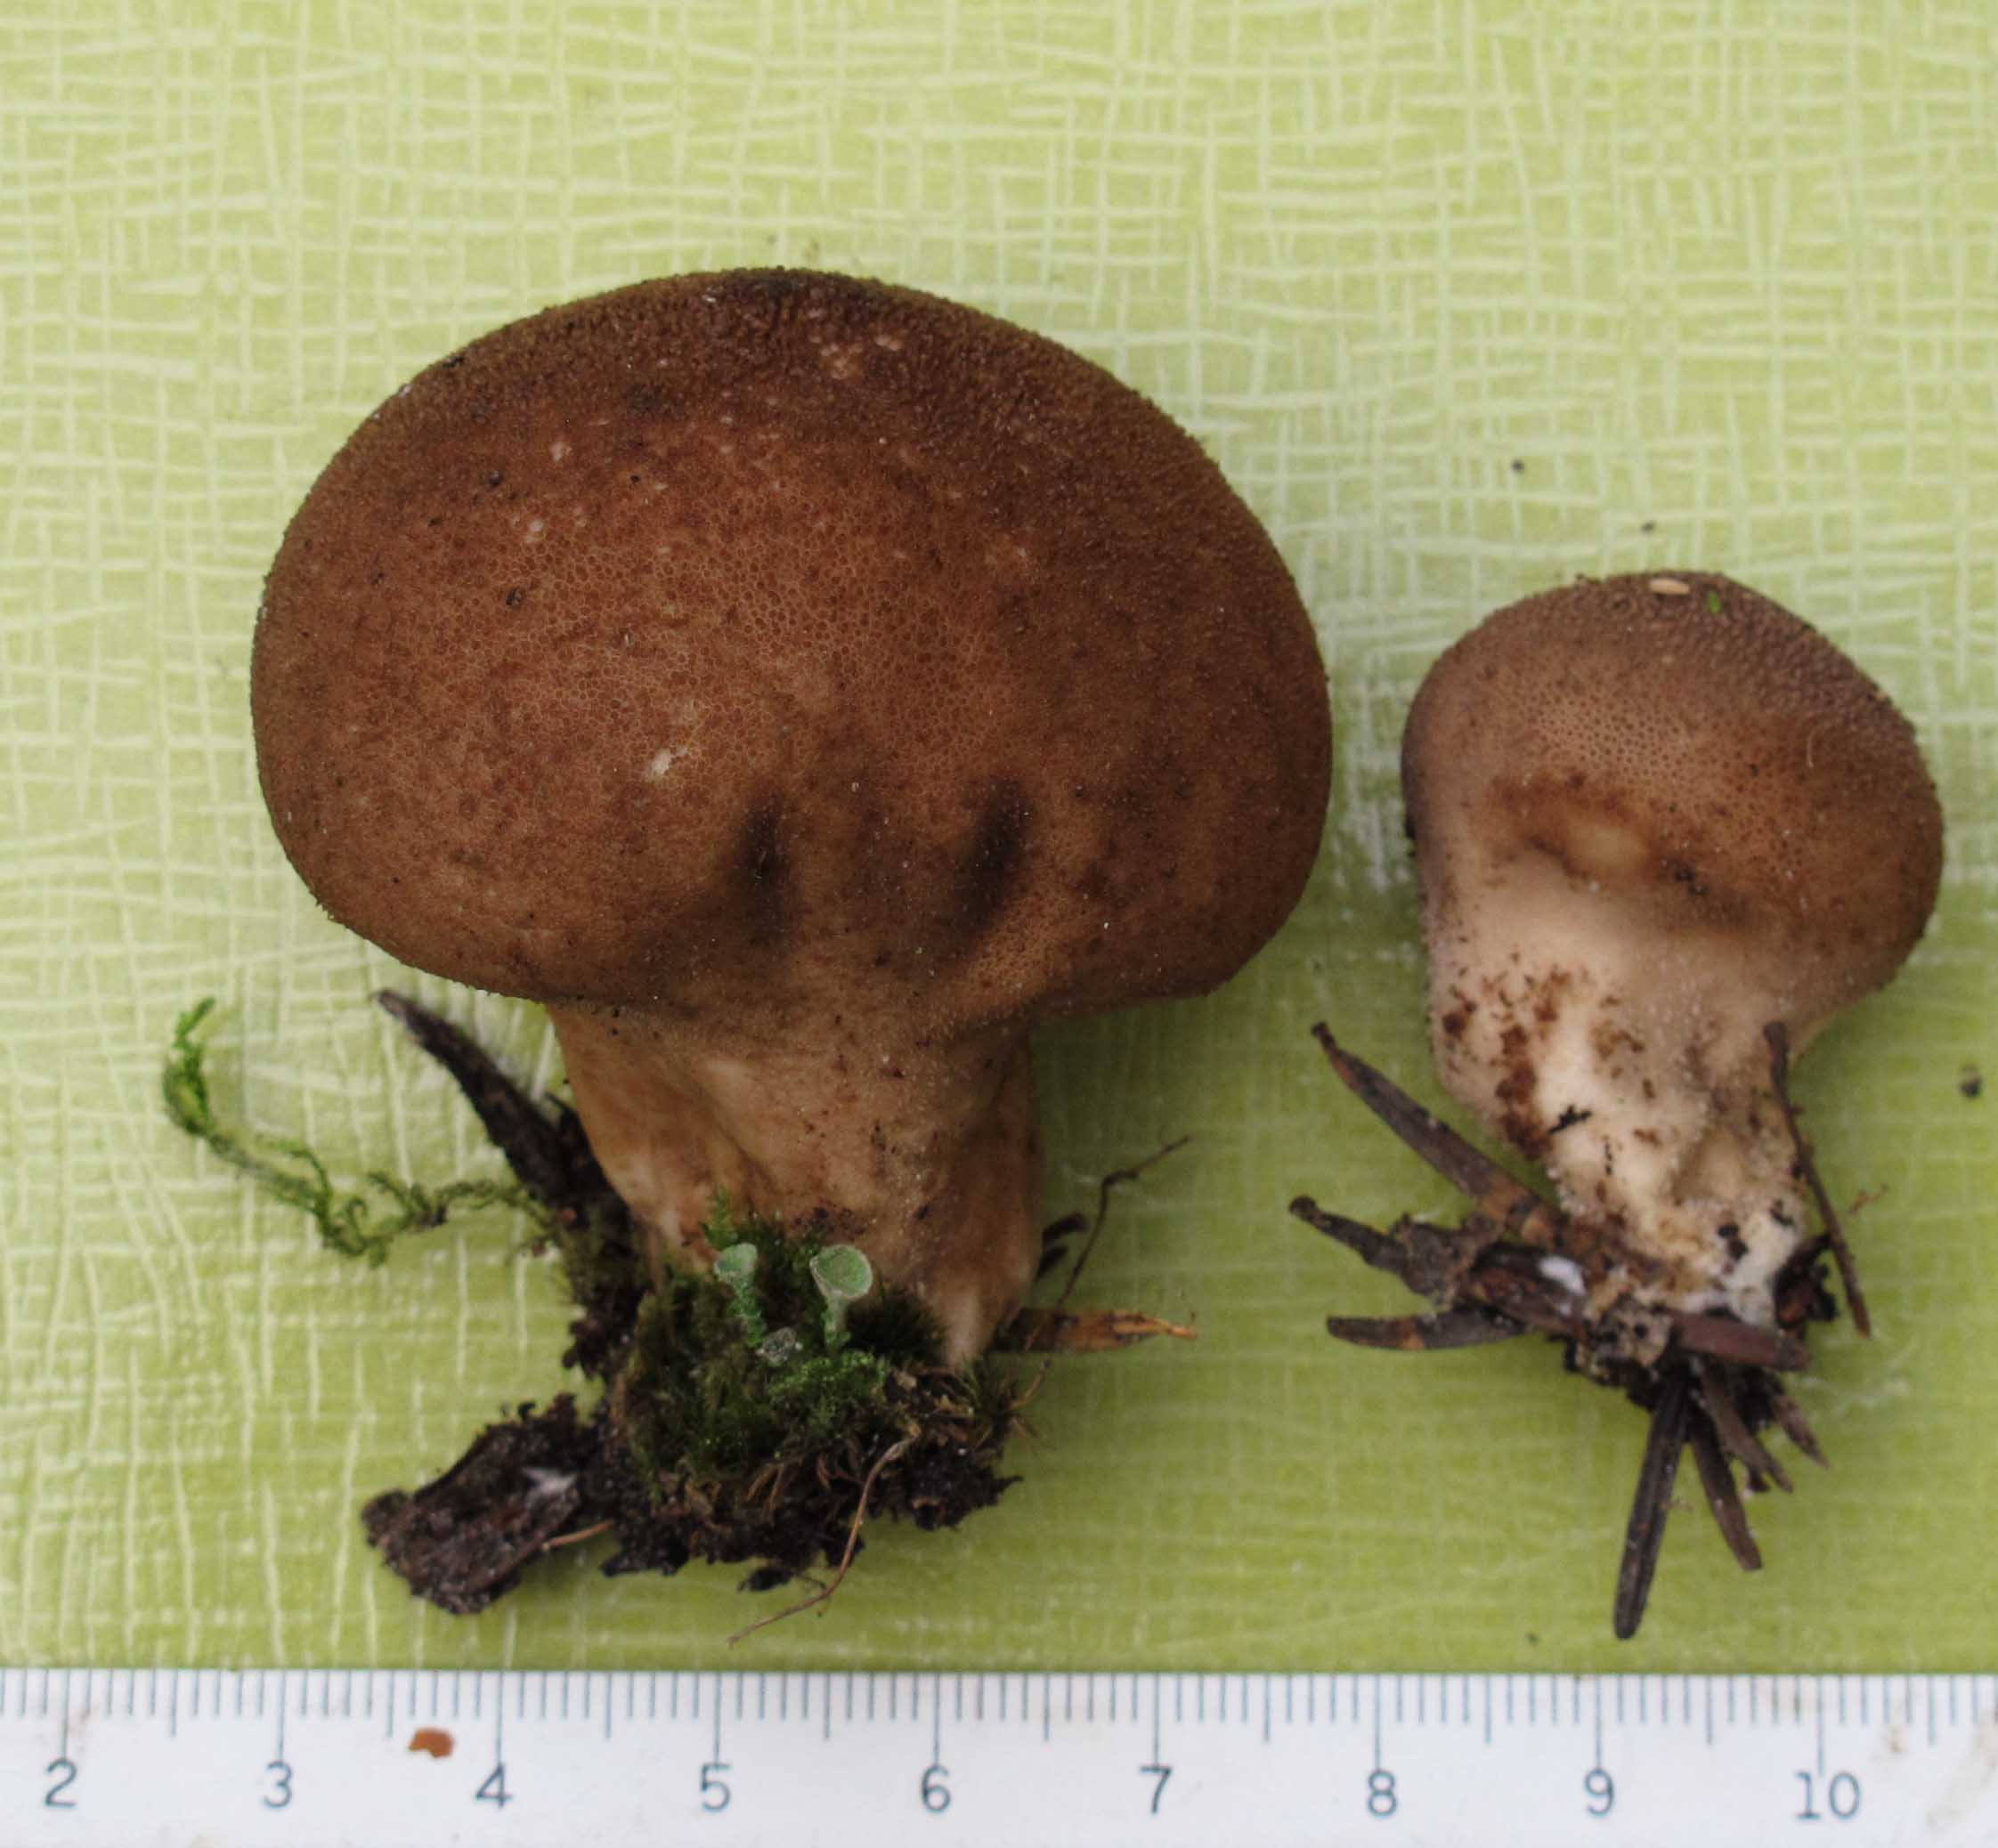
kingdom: Fungi
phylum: Basidiomycota
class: Agaricomycetes
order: Agaricales
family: Lycoperdaceae
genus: Lycoperdon
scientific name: Lycoperdon nigrescens
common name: sortagtig støvbold
